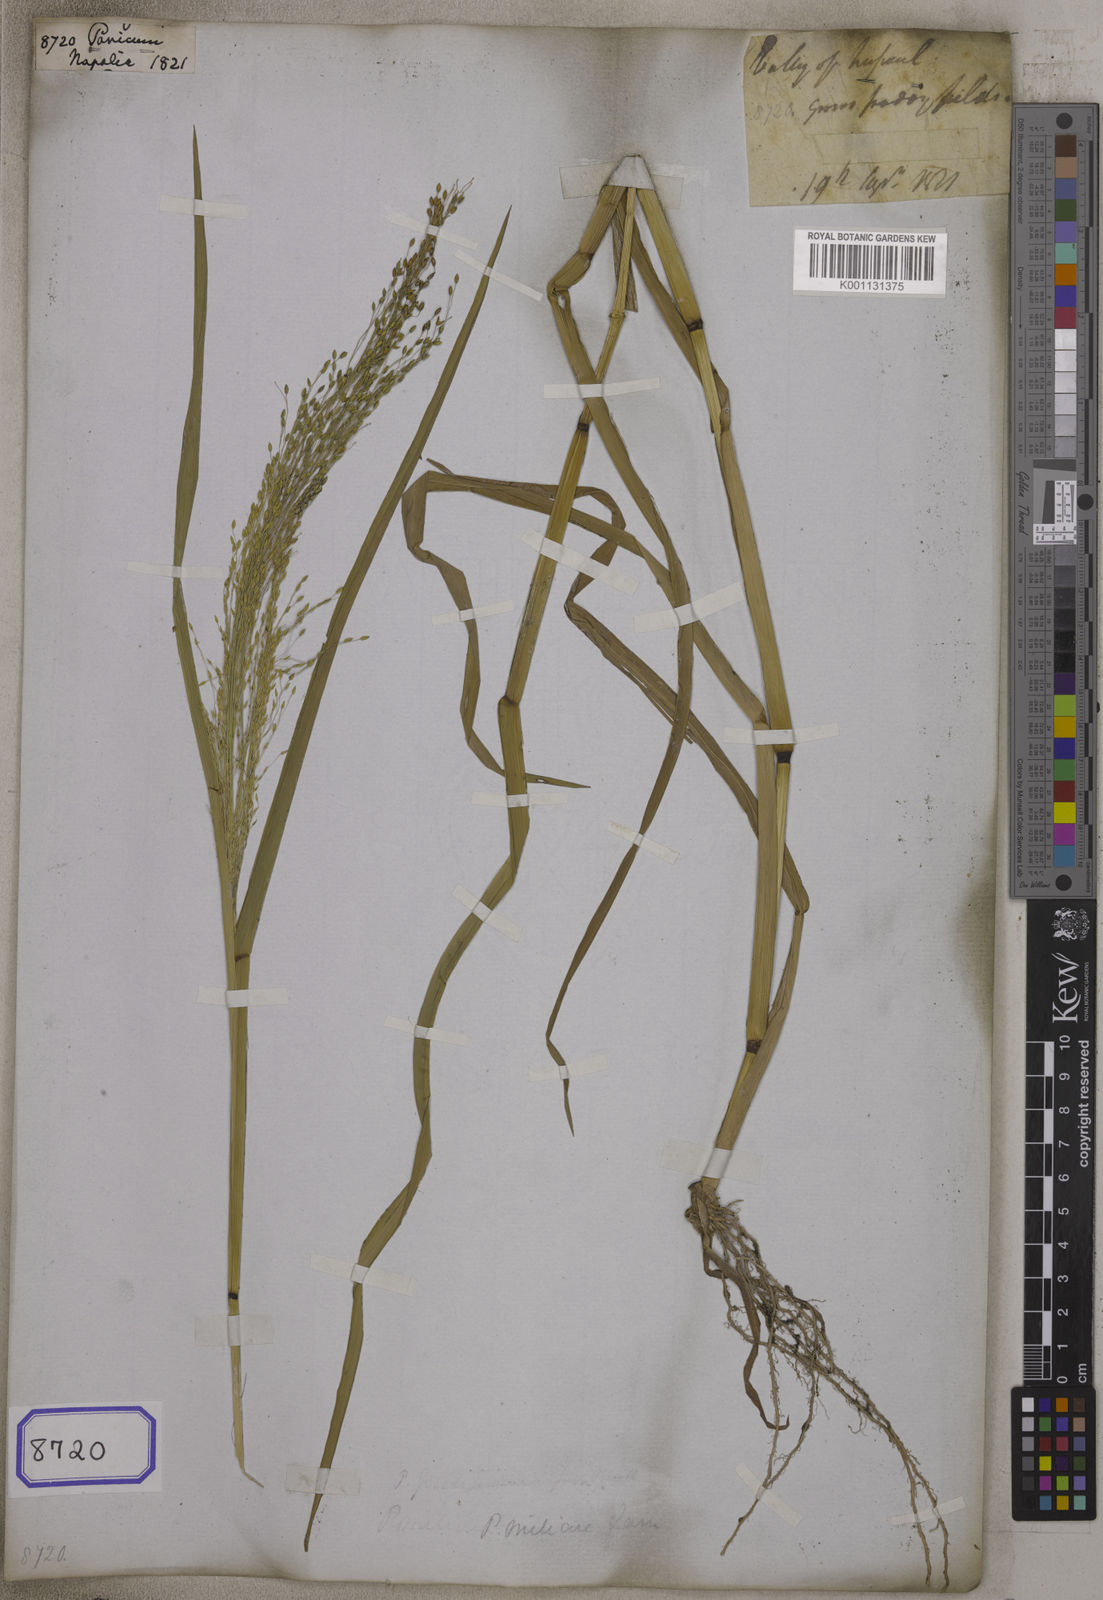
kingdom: Plantae
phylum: Tracheophyta
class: Liliopsida
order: Poales
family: Poaceae
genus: Panicum
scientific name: Panicum
